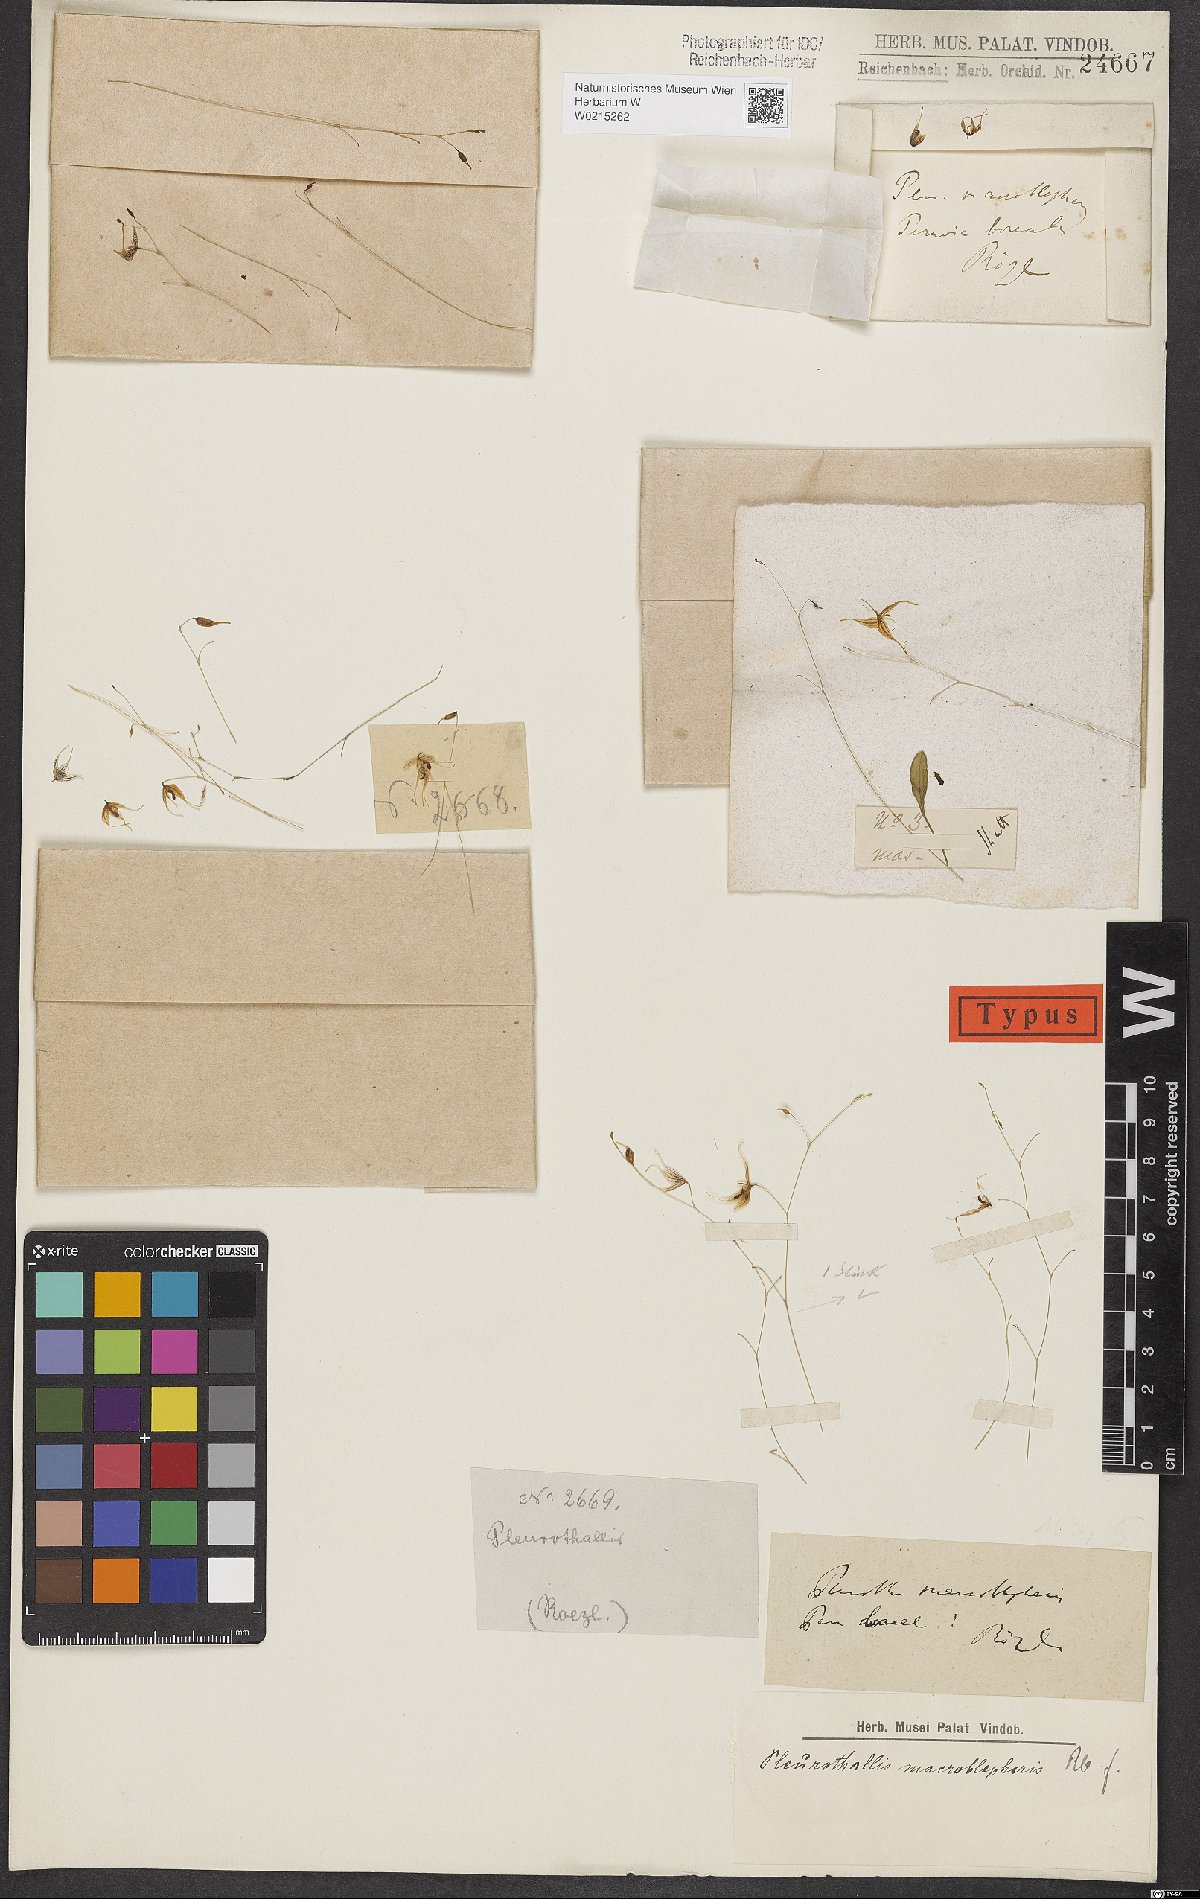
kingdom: Plantae
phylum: Tracheophyta
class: Liliopsida
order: Asparagales
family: Orchidaceae
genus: Pleurothallis
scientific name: Pleurothallis
